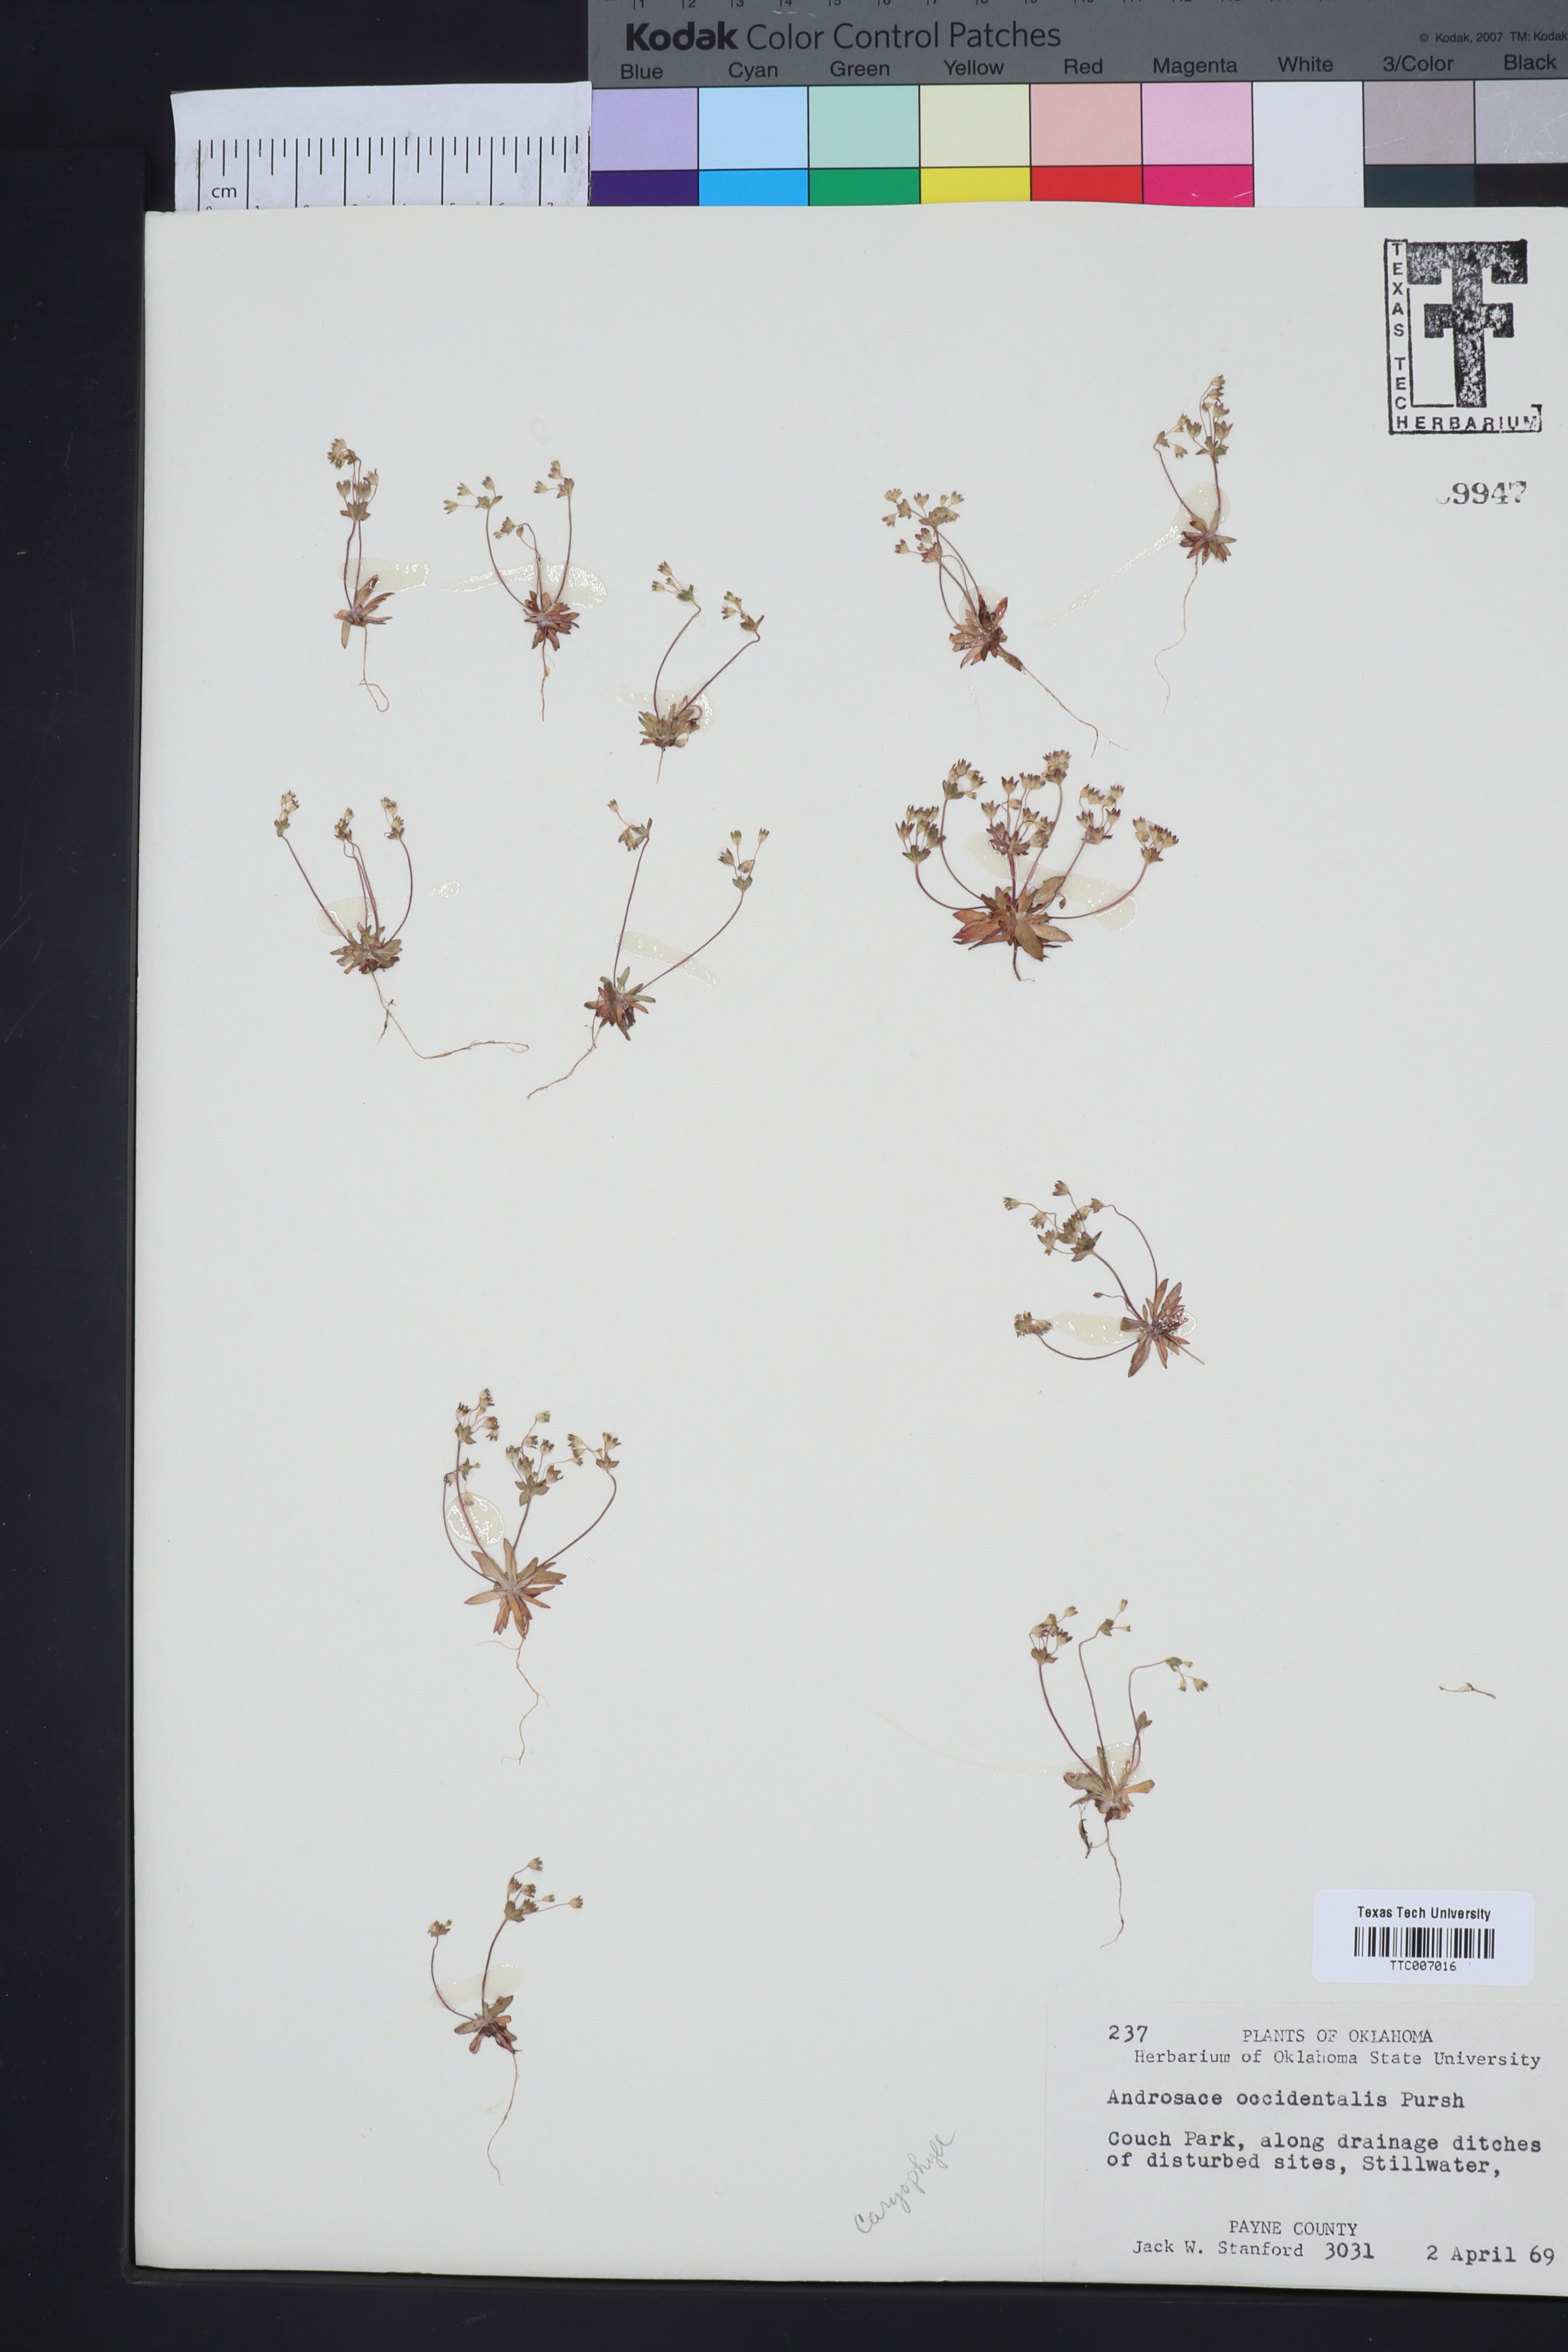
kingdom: Plantae
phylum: Tracheophyta
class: Magnoliopsida
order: Ericales
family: Primulaceae
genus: Androsace
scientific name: Androsace occidentalis
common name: West rock-jasmine
